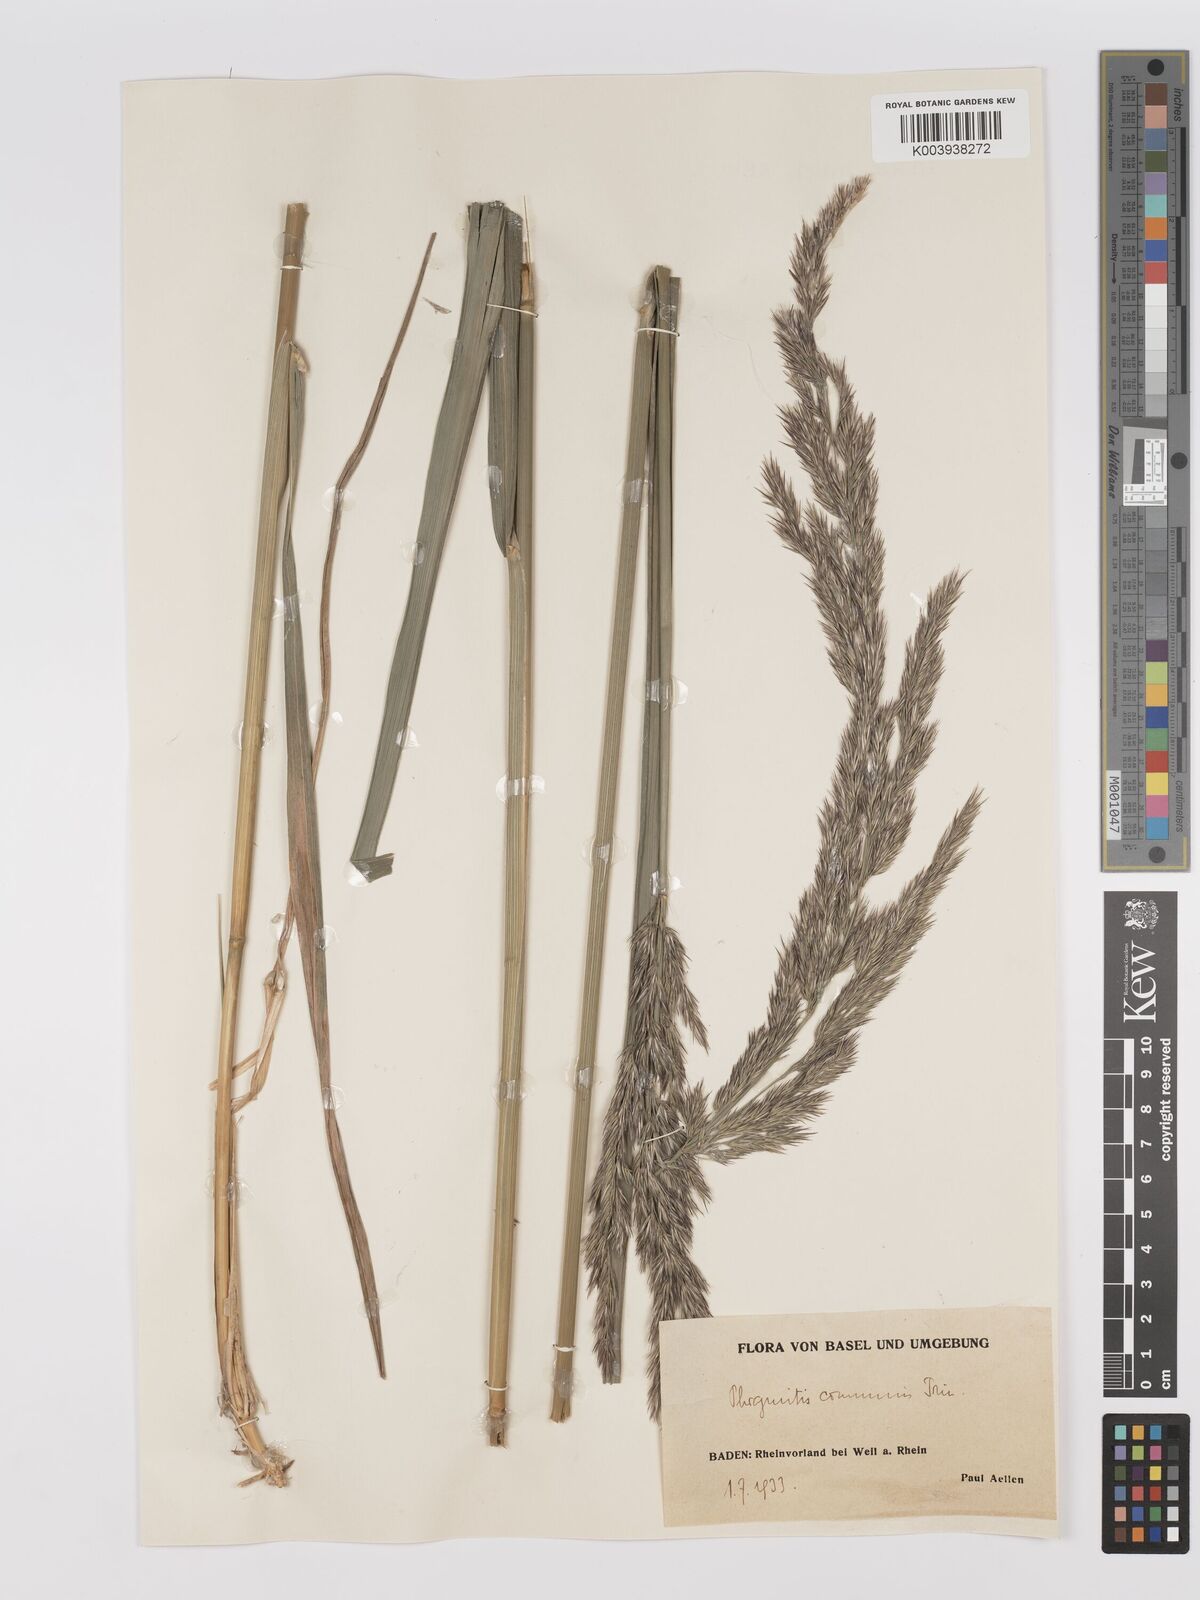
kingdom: Plantae
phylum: Tracheophyta
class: Liliopsida
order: Poales
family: Poaceae
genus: Phragmites
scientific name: Phragmites australis
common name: Common reed
